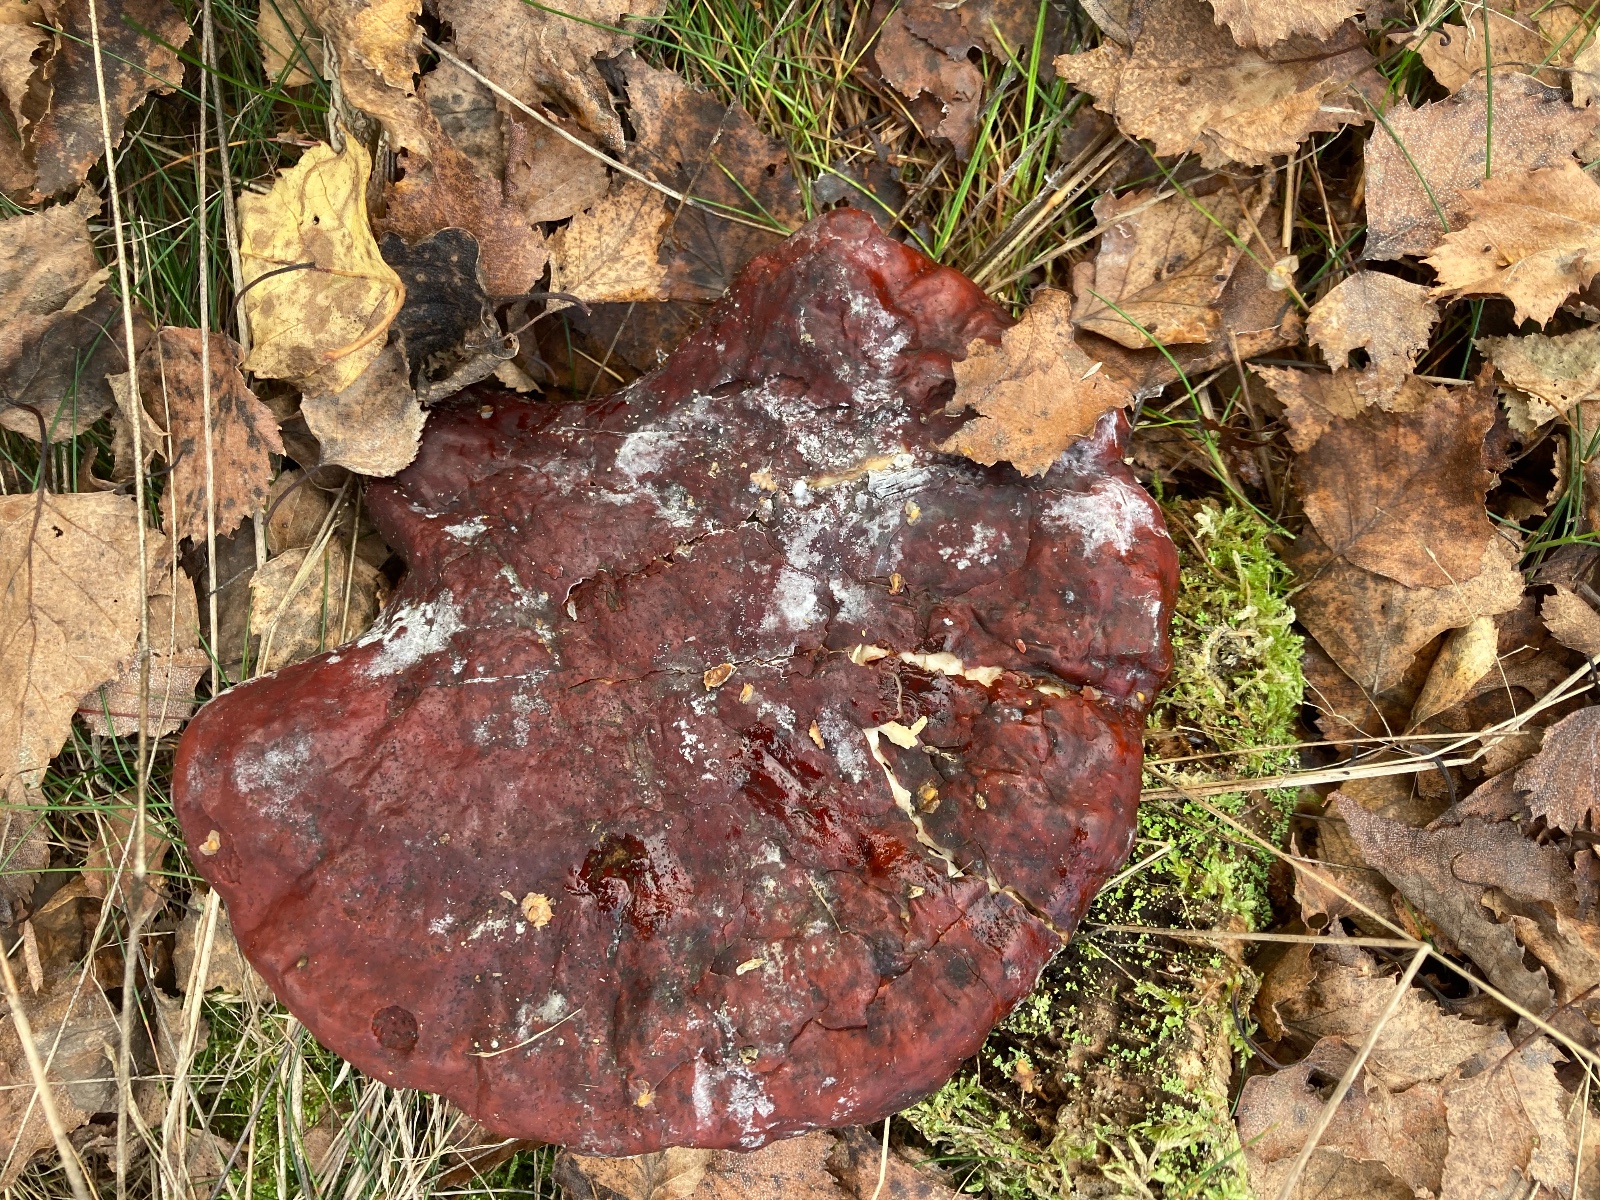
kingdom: Fungi
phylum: Basidiomycota
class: Agaricomycetes
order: Polyporales
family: Polyporaceae
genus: Ganoderma
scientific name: Ganoderma lucidum
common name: skinnende lakporesvamp
